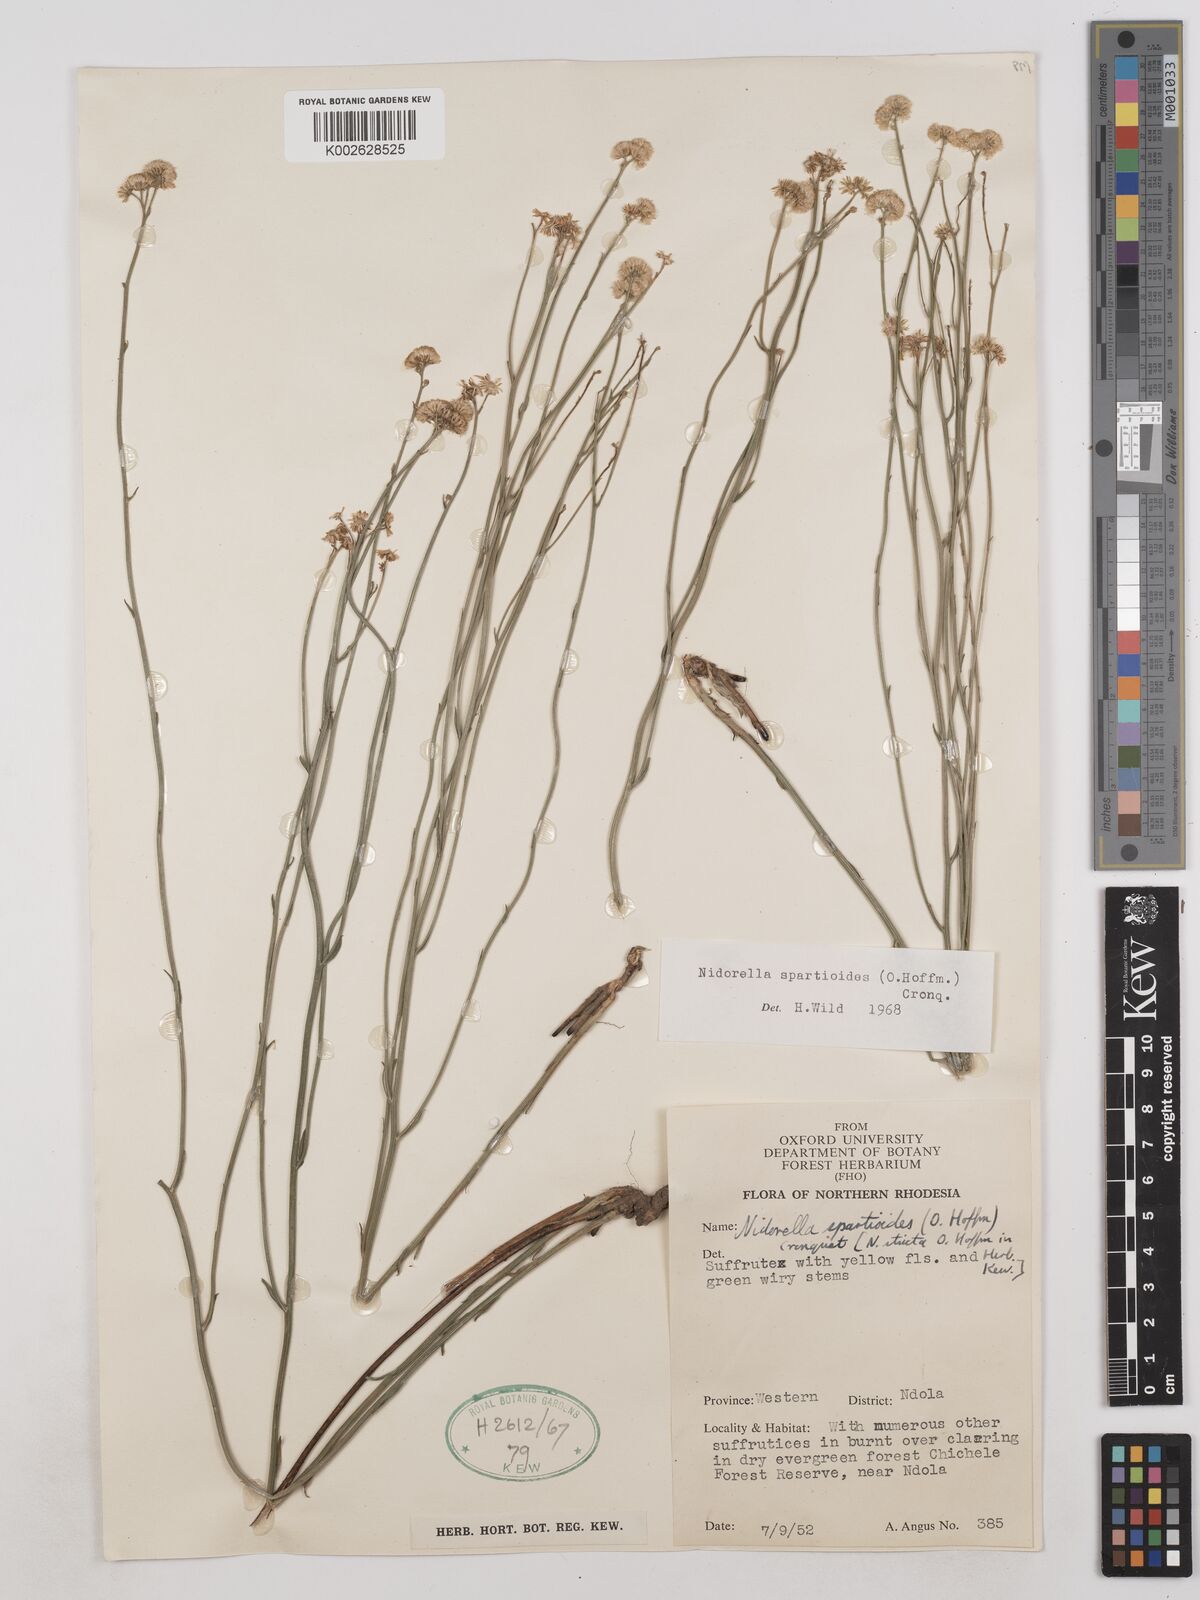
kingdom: Plantae
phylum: Tracheophyta
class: Magnoliopsida
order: Asterales
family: Asteraceae
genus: Nidorella
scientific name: Nidorella spartioides
